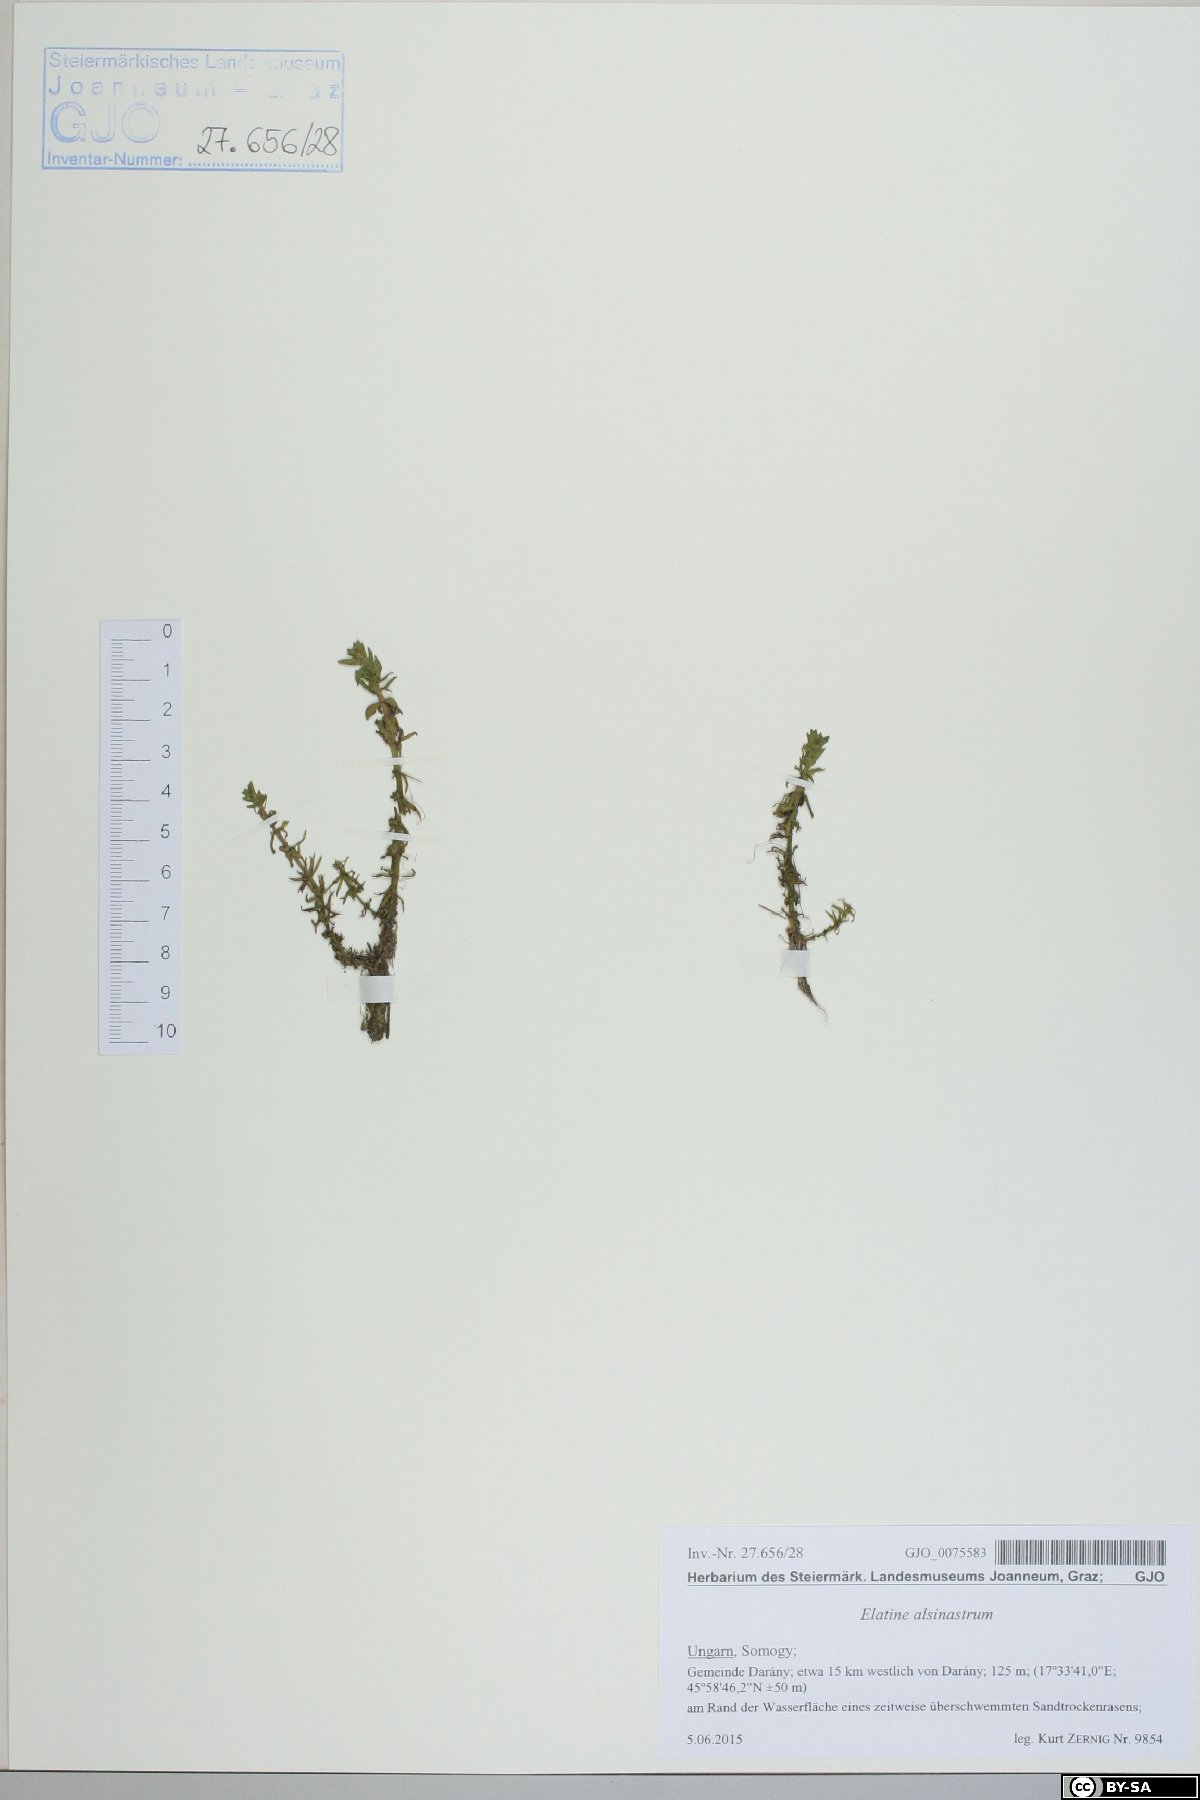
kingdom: Plantae
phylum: Tracheophyta
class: Magnoliopsida
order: Malpighiales
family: Elatinaceae
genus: Elatine
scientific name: Elatine alsinastrum
